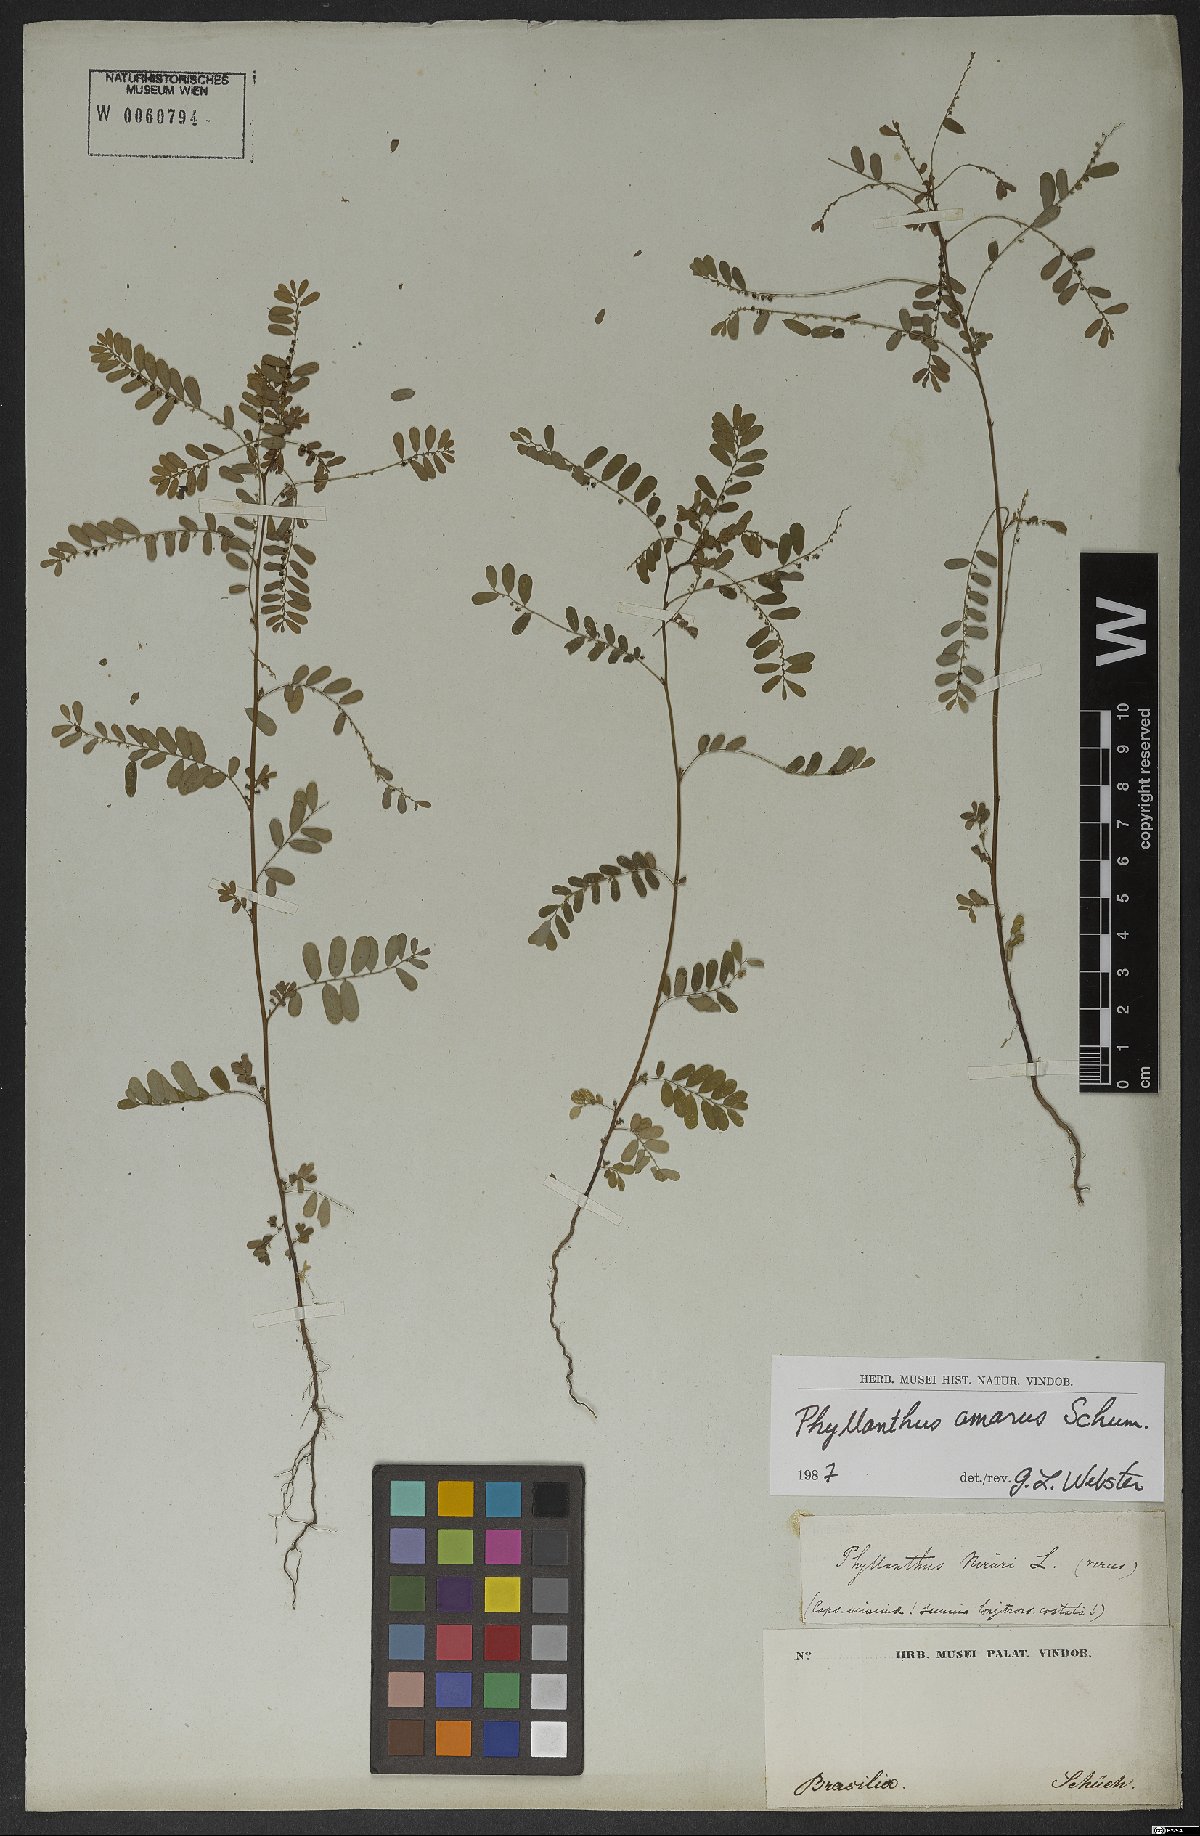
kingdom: Plantae
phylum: Tracheophyta
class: Magnoliopsida
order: Malpighiales
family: Phyllanthaceae
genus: Phyllanthus
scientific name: Phyllanthus amarus
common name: Carry me seed
